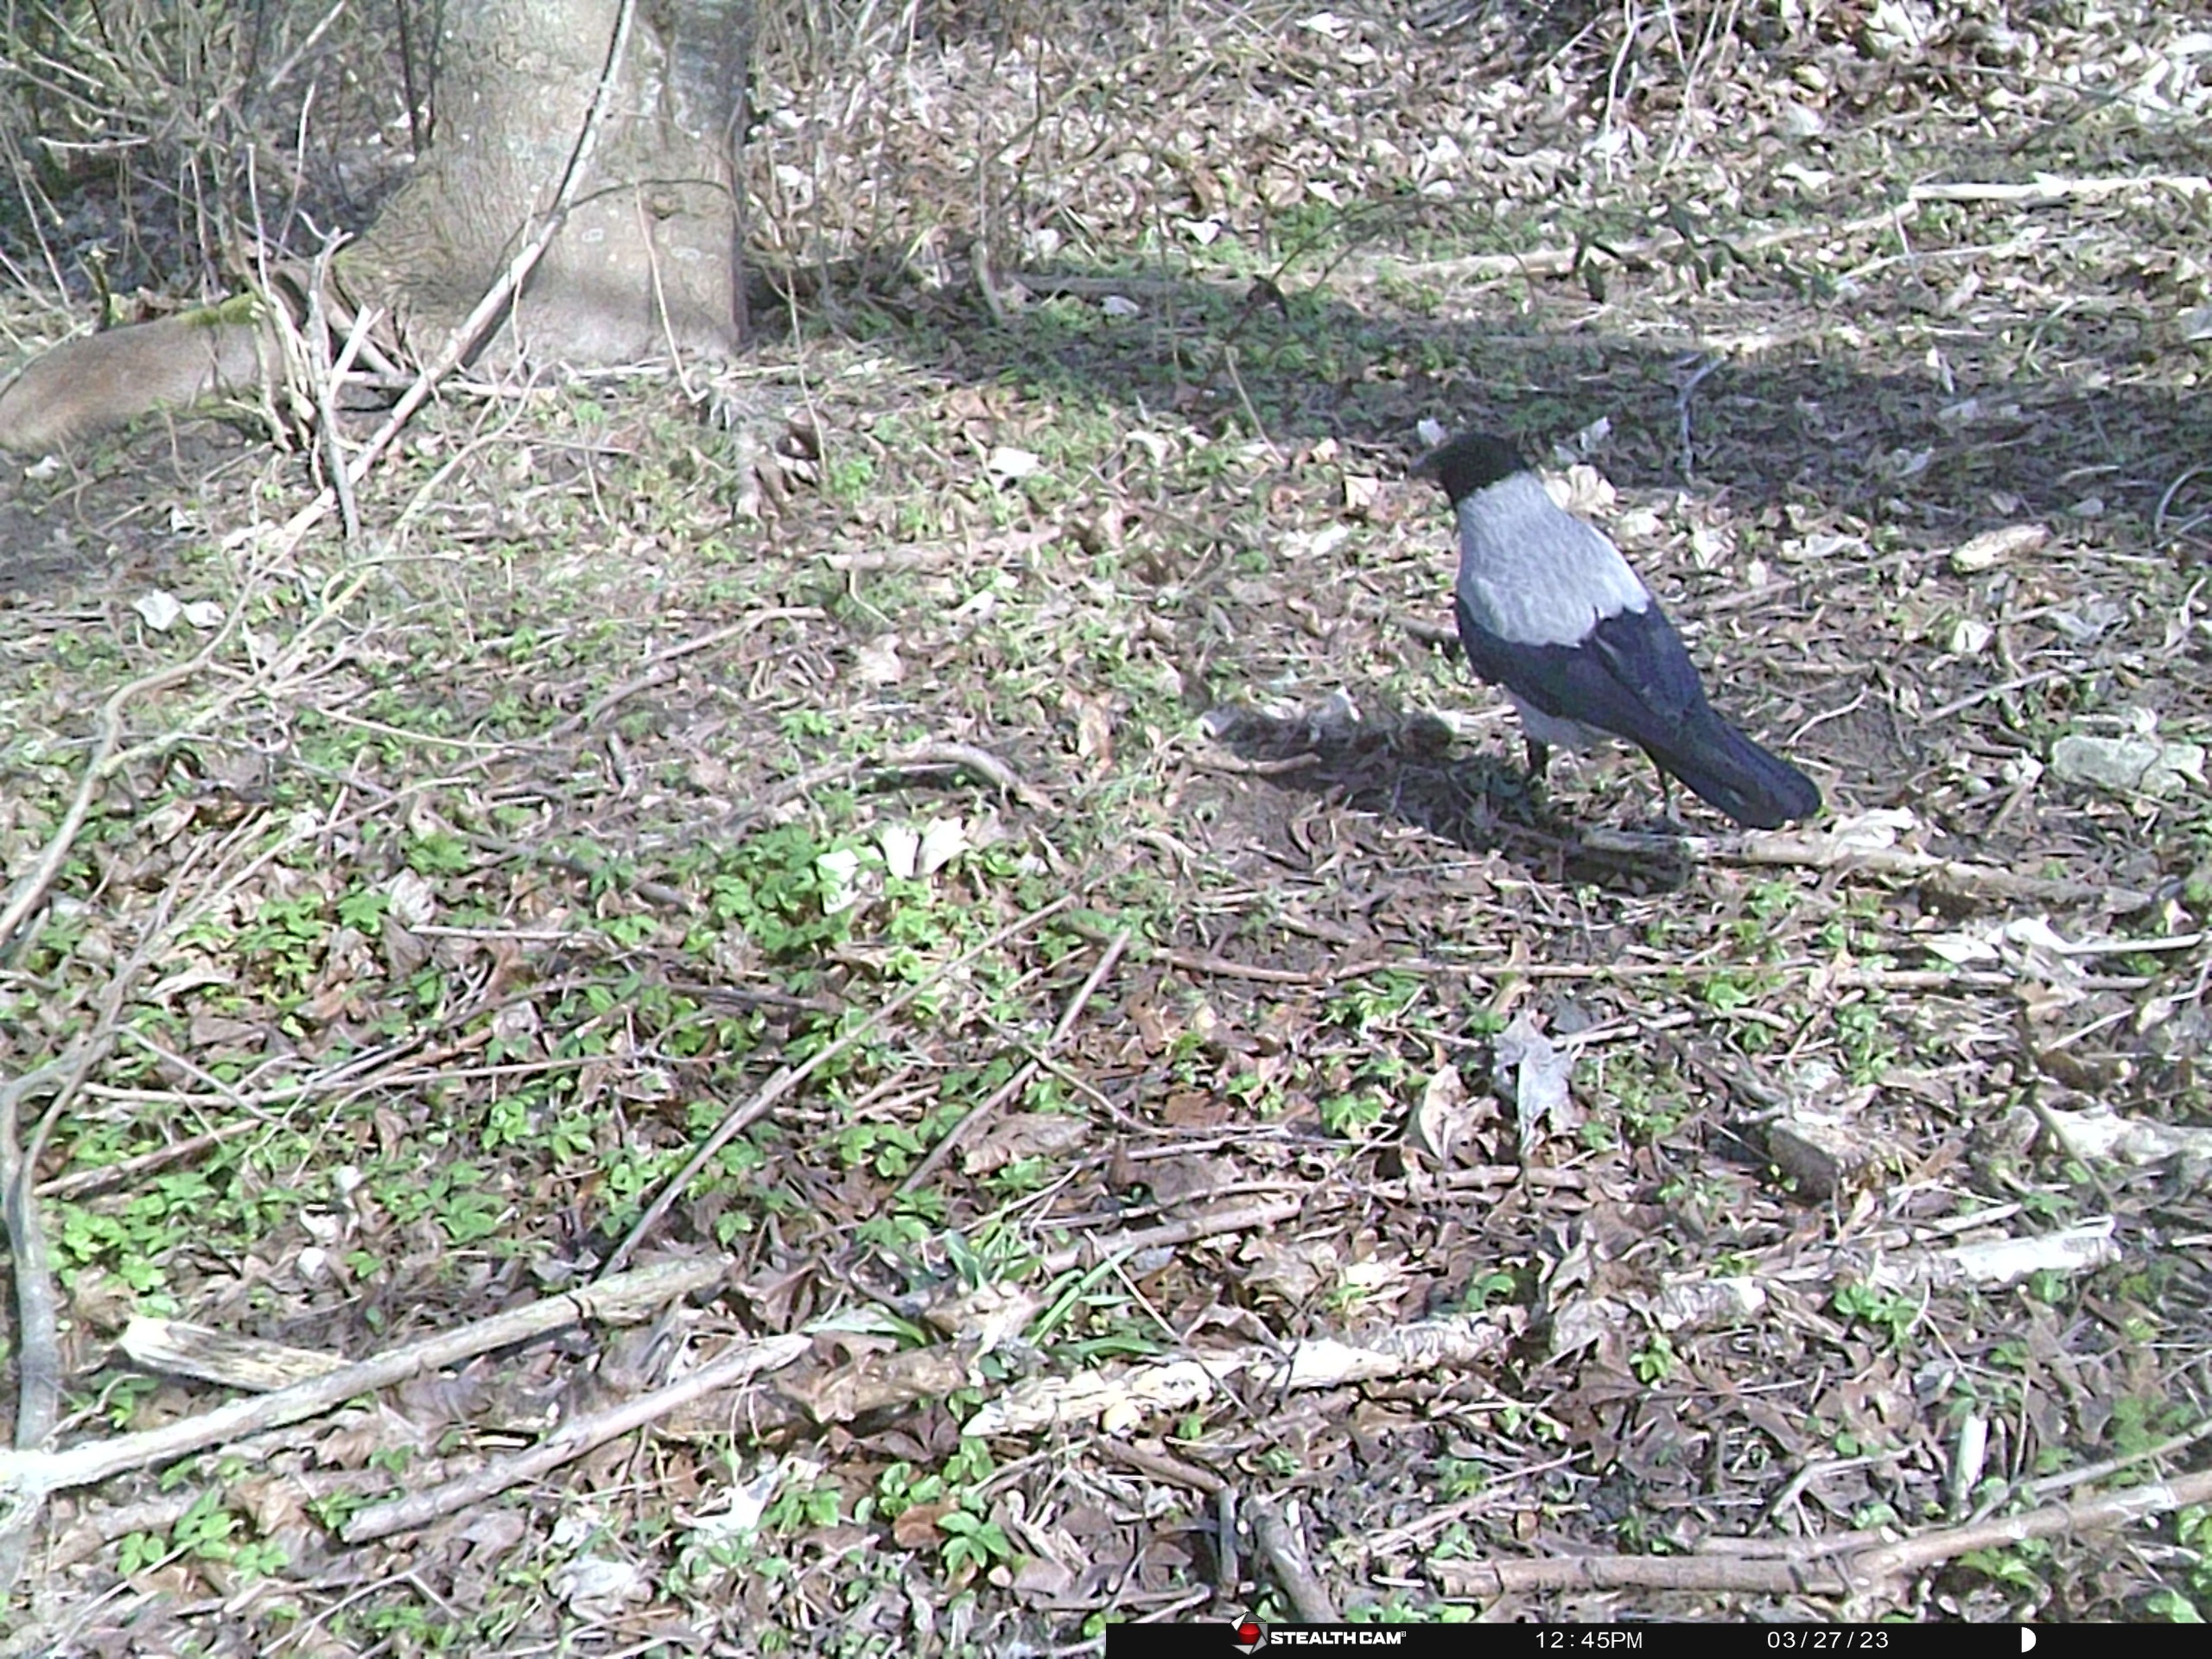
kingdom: Animalia
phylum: Chordata
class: Aves
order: Passeriformes
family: Corvidae
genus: Corvus
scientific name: Corvus cornix
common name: Gråkrage
